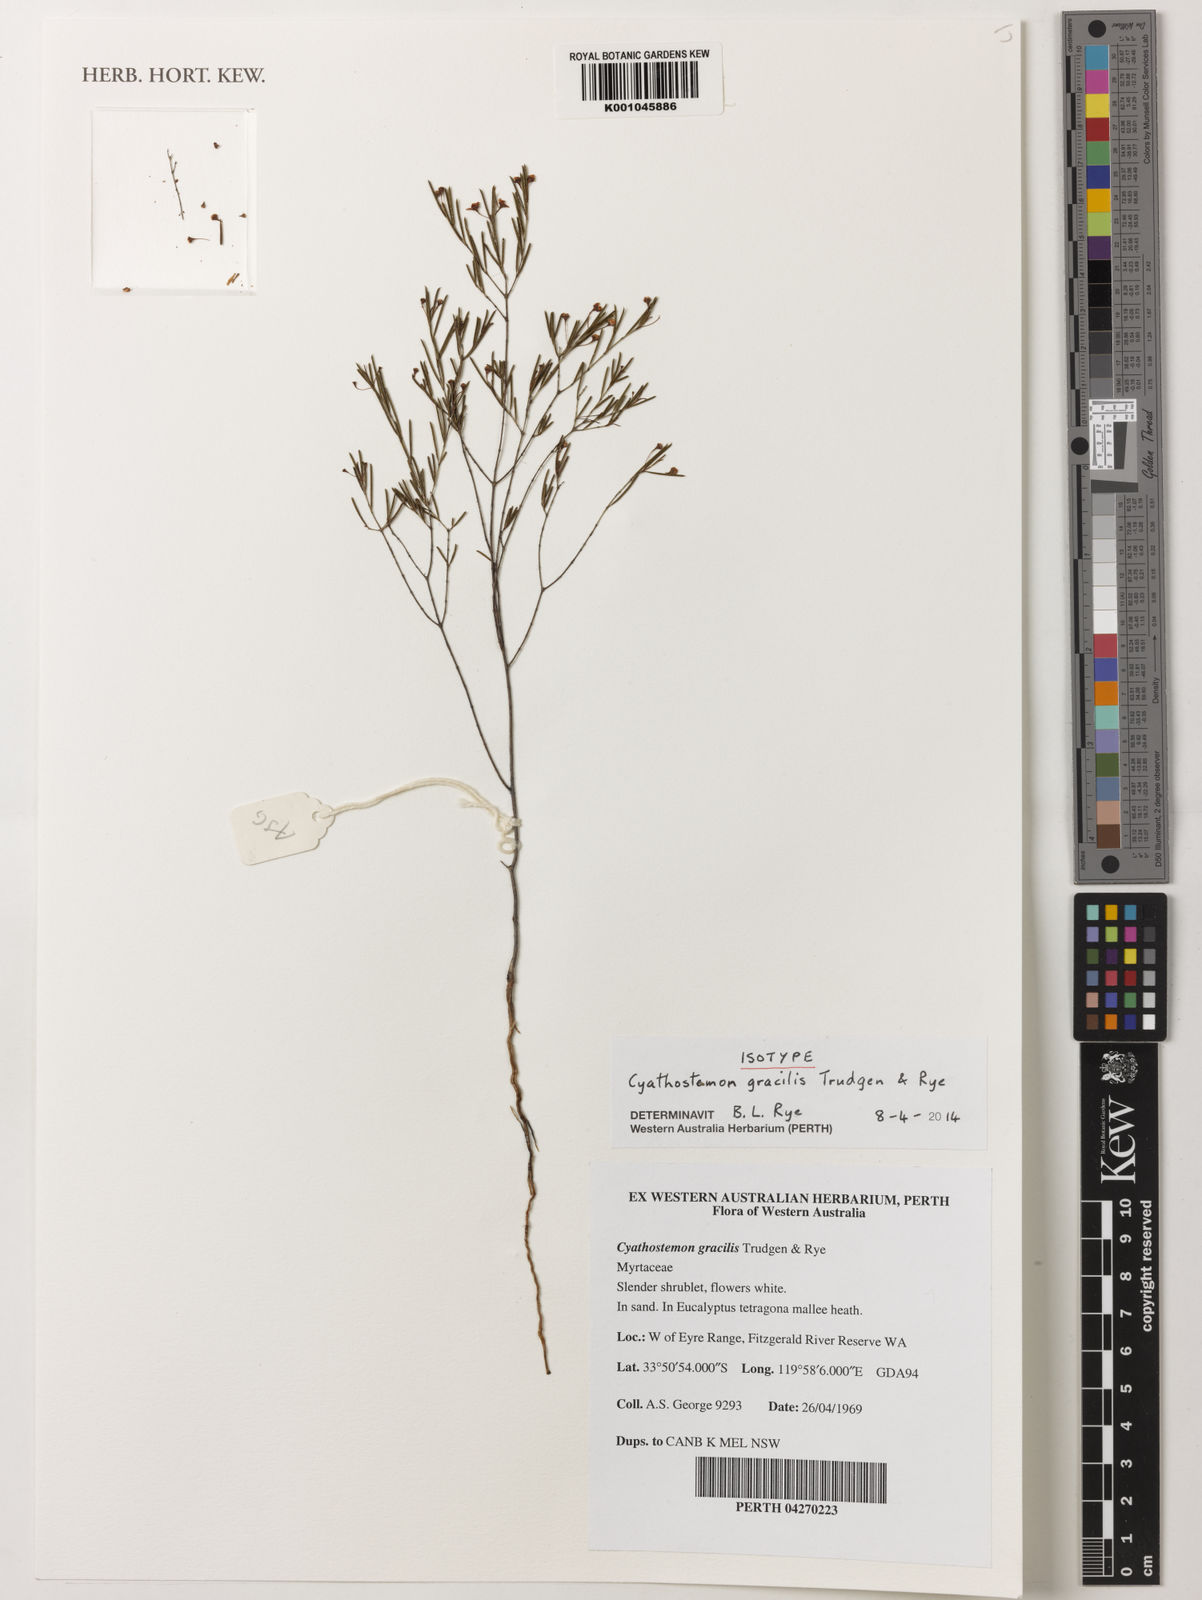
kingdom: Plantae
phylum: Tracheophyta
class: Magnoliopsida
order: Myrtales
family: Myrtaceae
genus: Cyathostemon
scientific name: Cyathostemon gracilis
